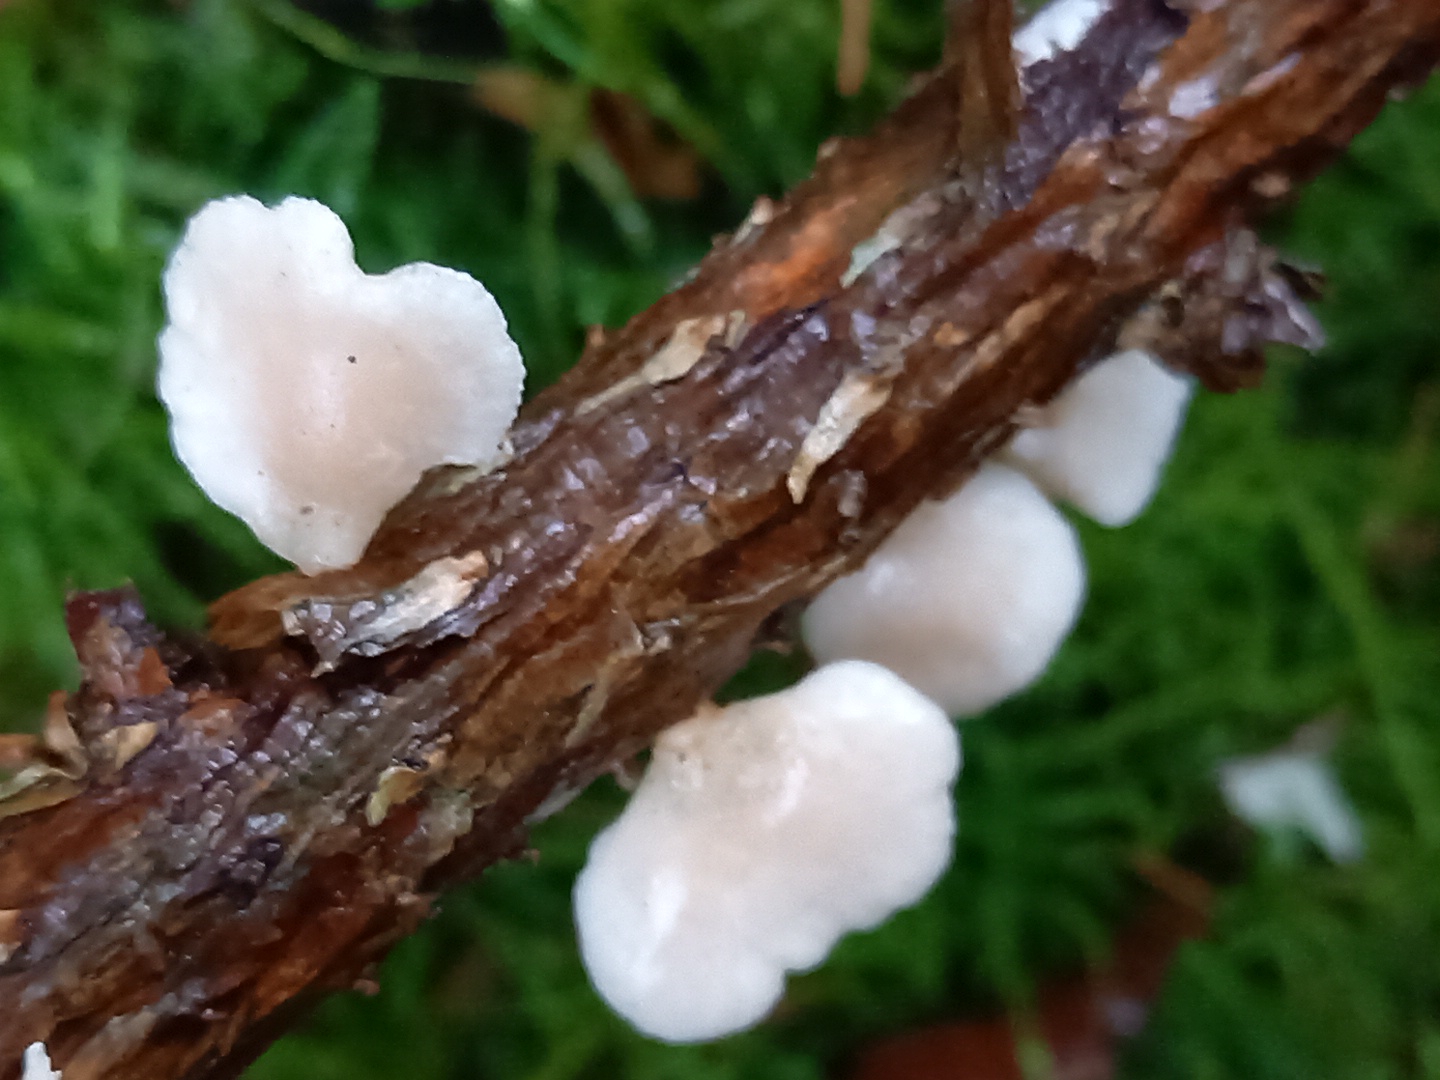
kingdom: Fungi
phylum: Basidiomycota
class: Agaricomycetes
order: Agaricales
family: Mycenaceae
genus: Panellus
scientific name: Panellus mitis
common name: mild epaulethat
